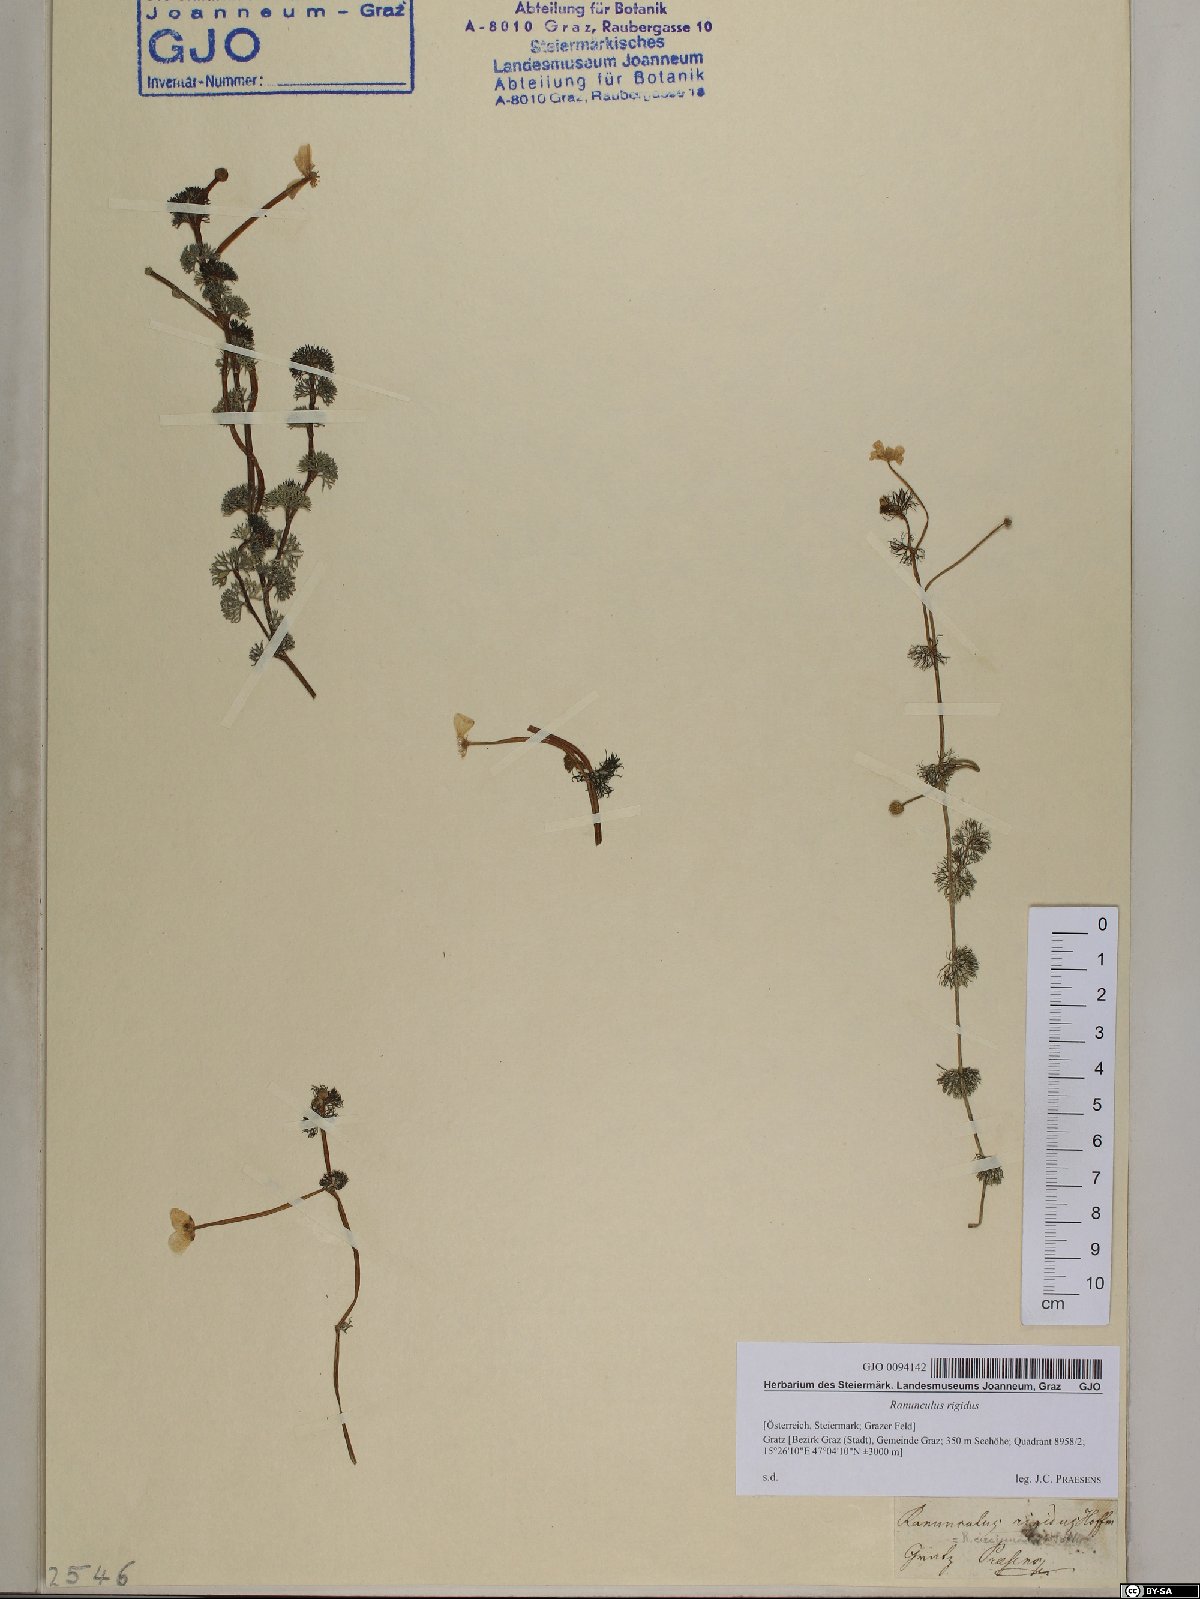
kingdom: Plantae
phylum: Tracheophyta
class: Magnoliopsida
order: Ranunculales
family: Ranunculaceae
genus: Ranunculus
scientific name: Ranunculus
